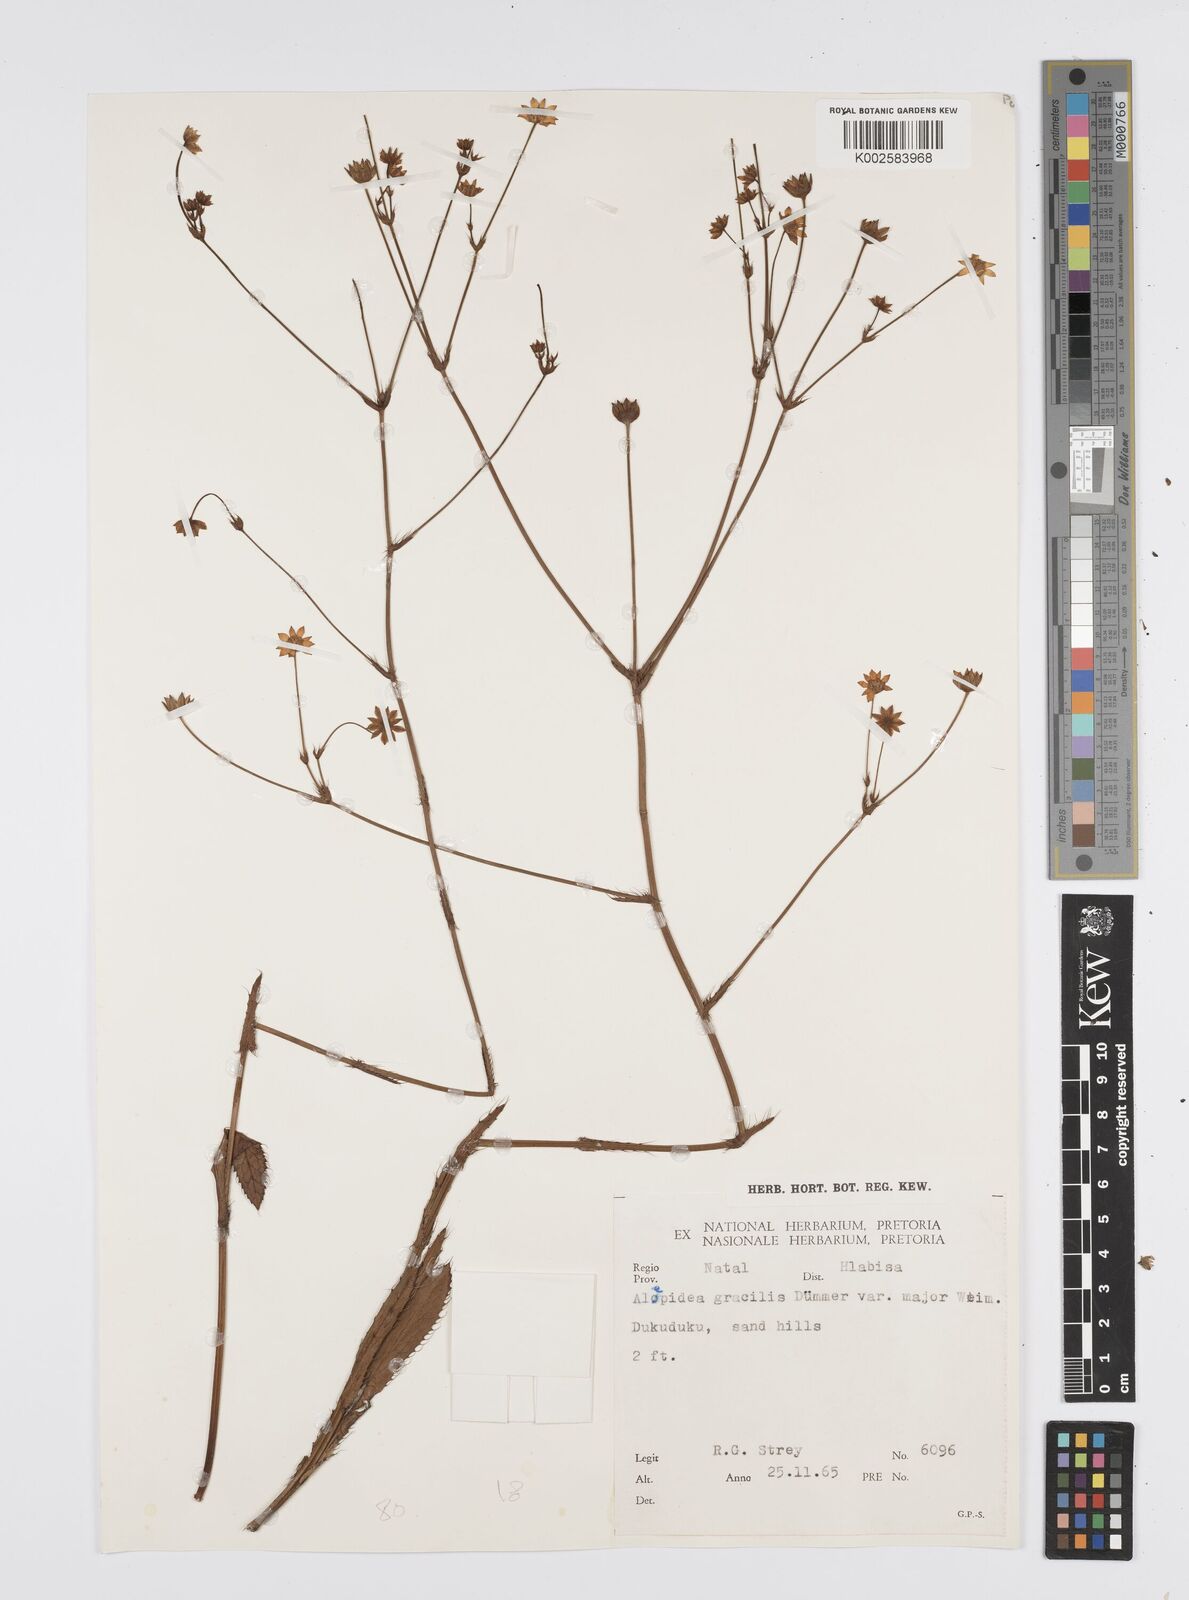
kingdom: Plantae
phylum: Tracheophyta
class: Magnoliopsida
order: Apiales
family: Apiaceae
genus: Alepidea
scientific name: Alepidea
